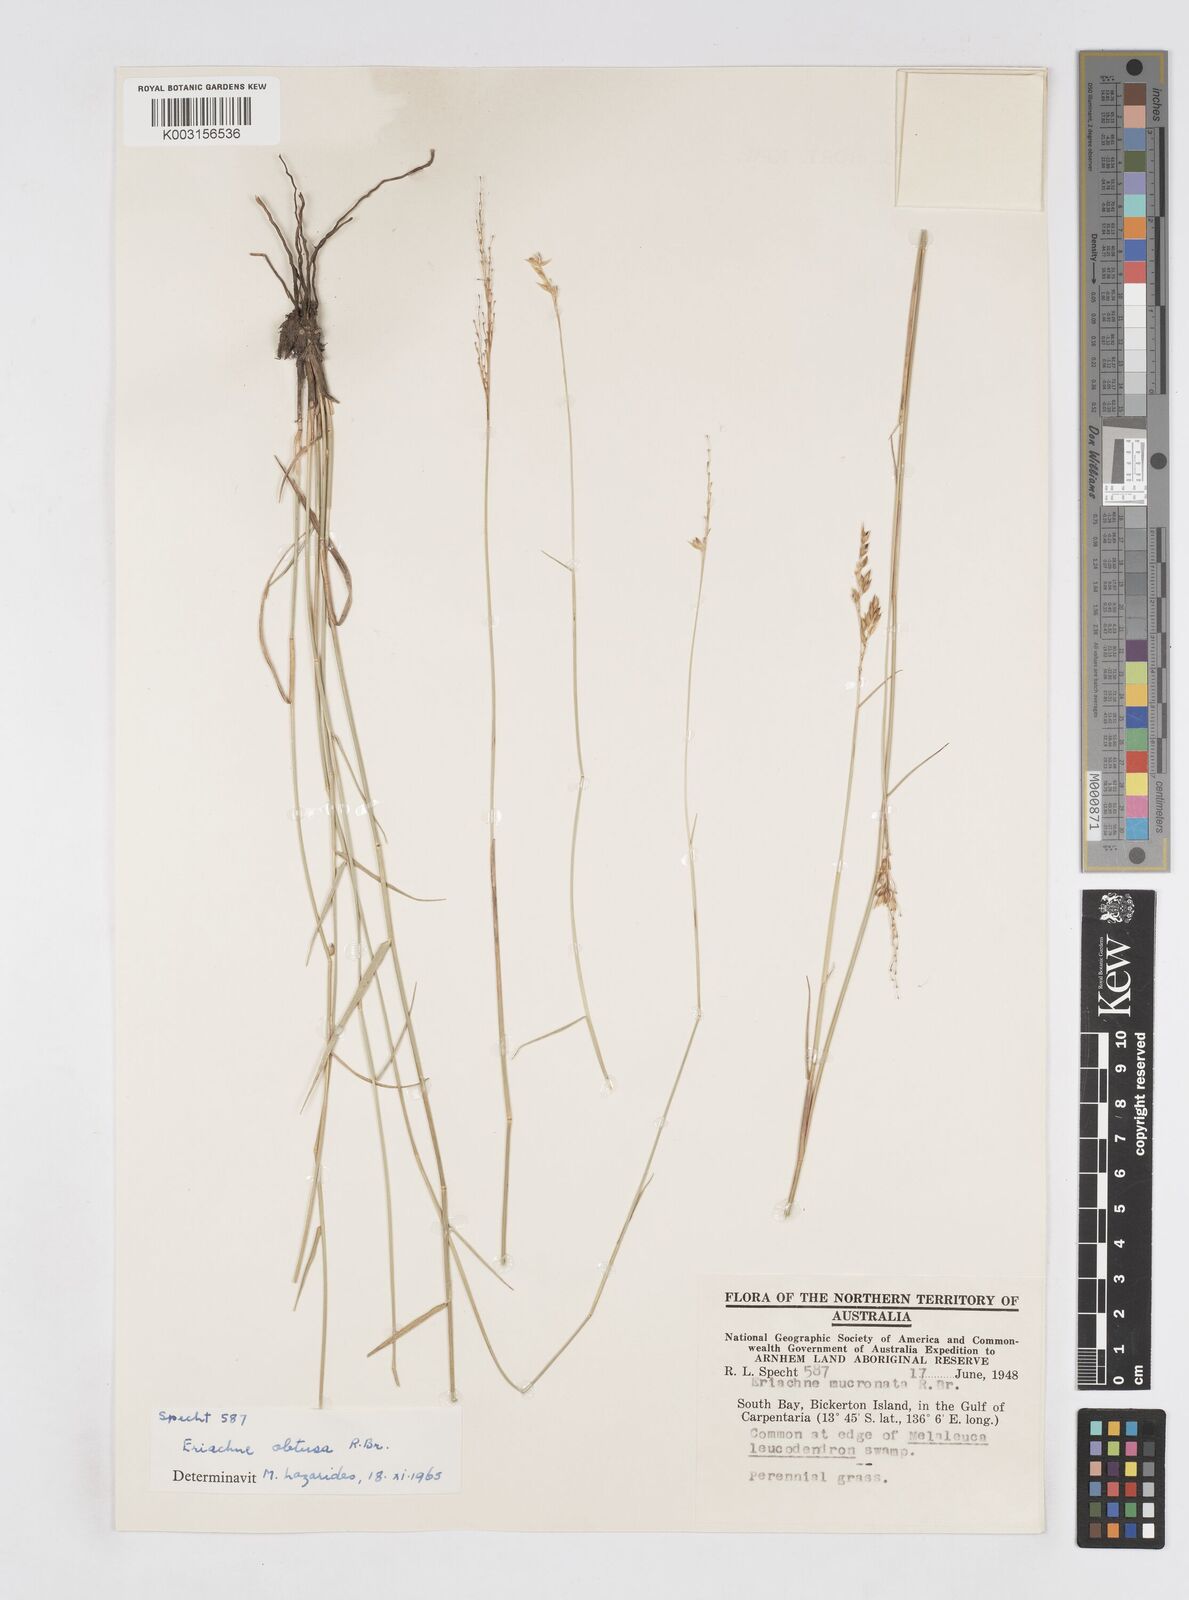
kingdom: Plantae
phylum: Tracheophyta
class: Liliopsida
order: Poales
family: Poaceae
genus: Eriachne
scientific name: Eriachne obtusa
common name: Northern wanderrie grass
